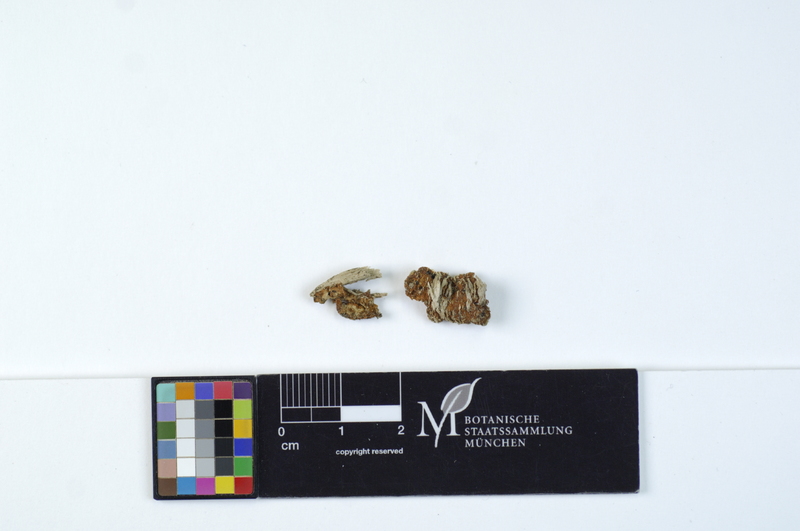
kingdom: Plantae
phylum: Tracheophyta
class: Magnoliopsida
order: Malpighiales
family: Salicaceae
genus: Salix
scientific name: Salix
